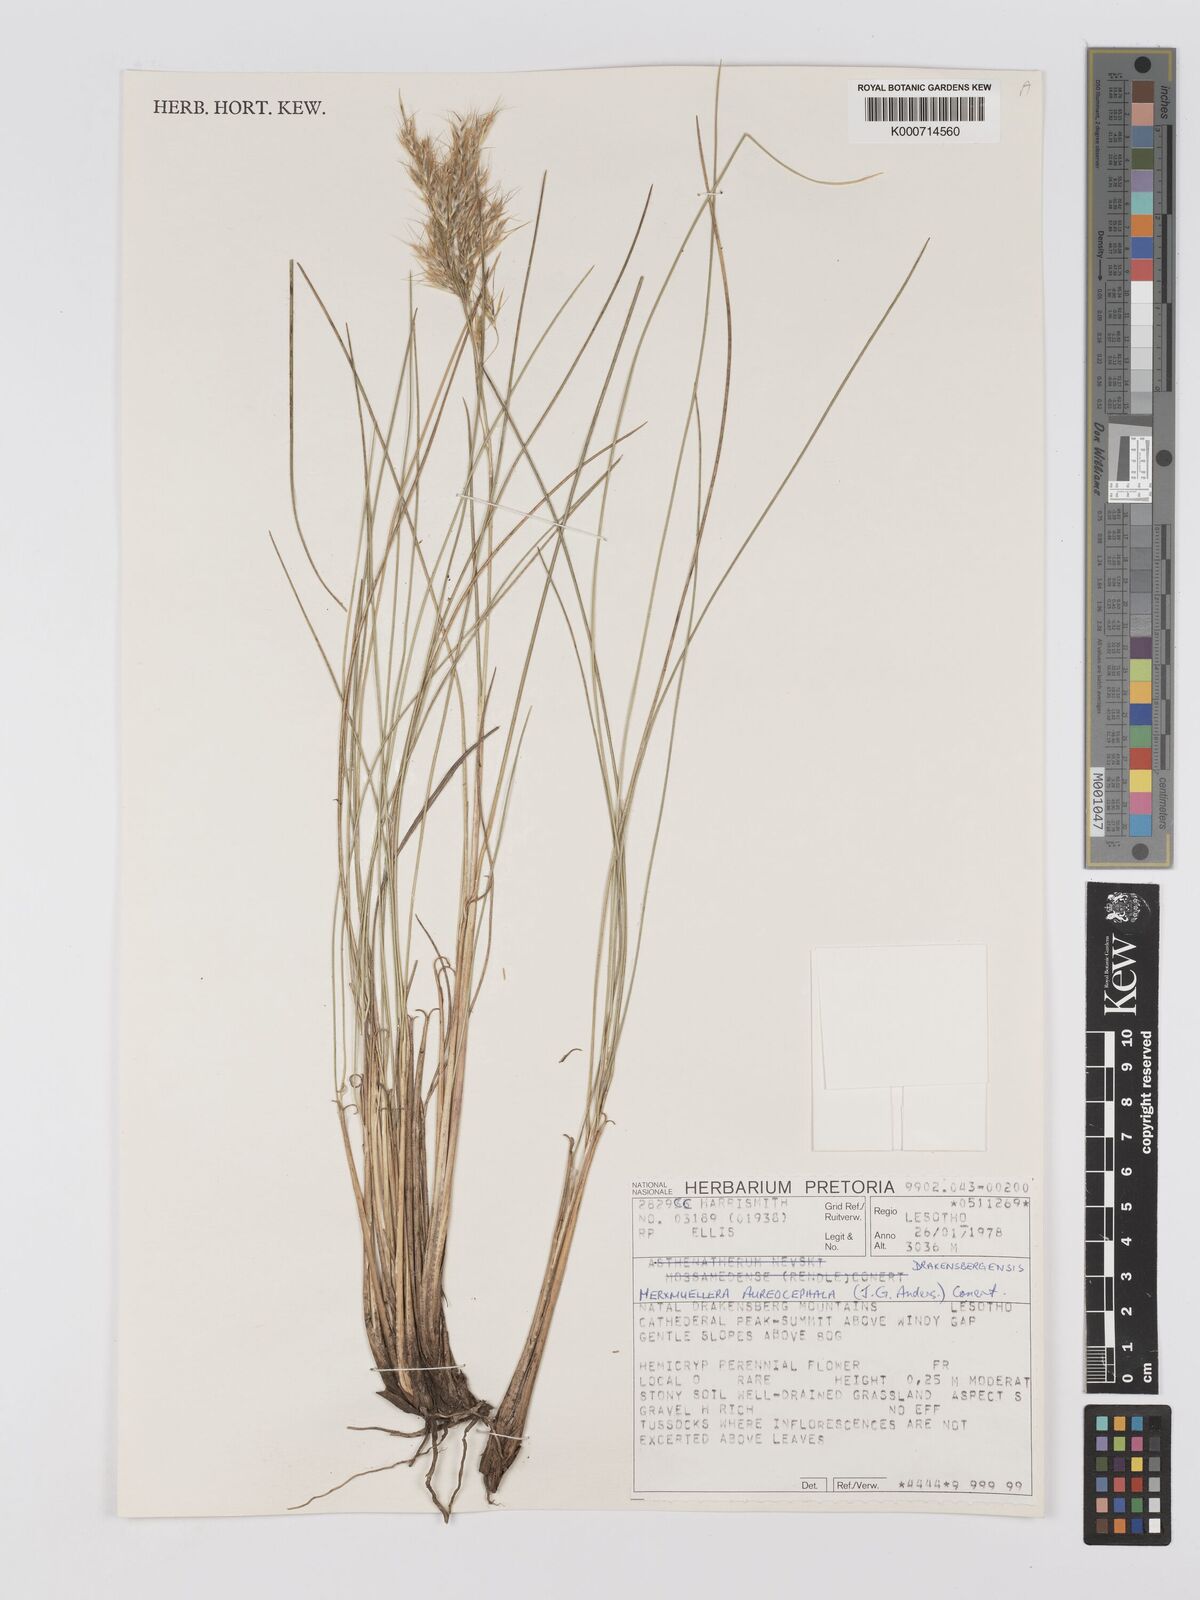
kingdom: Plantae
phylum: Tracheophyta
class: Liliopsida
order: Poales
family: Poaceae
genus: Rytidosperma
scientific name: Rytidosperma
